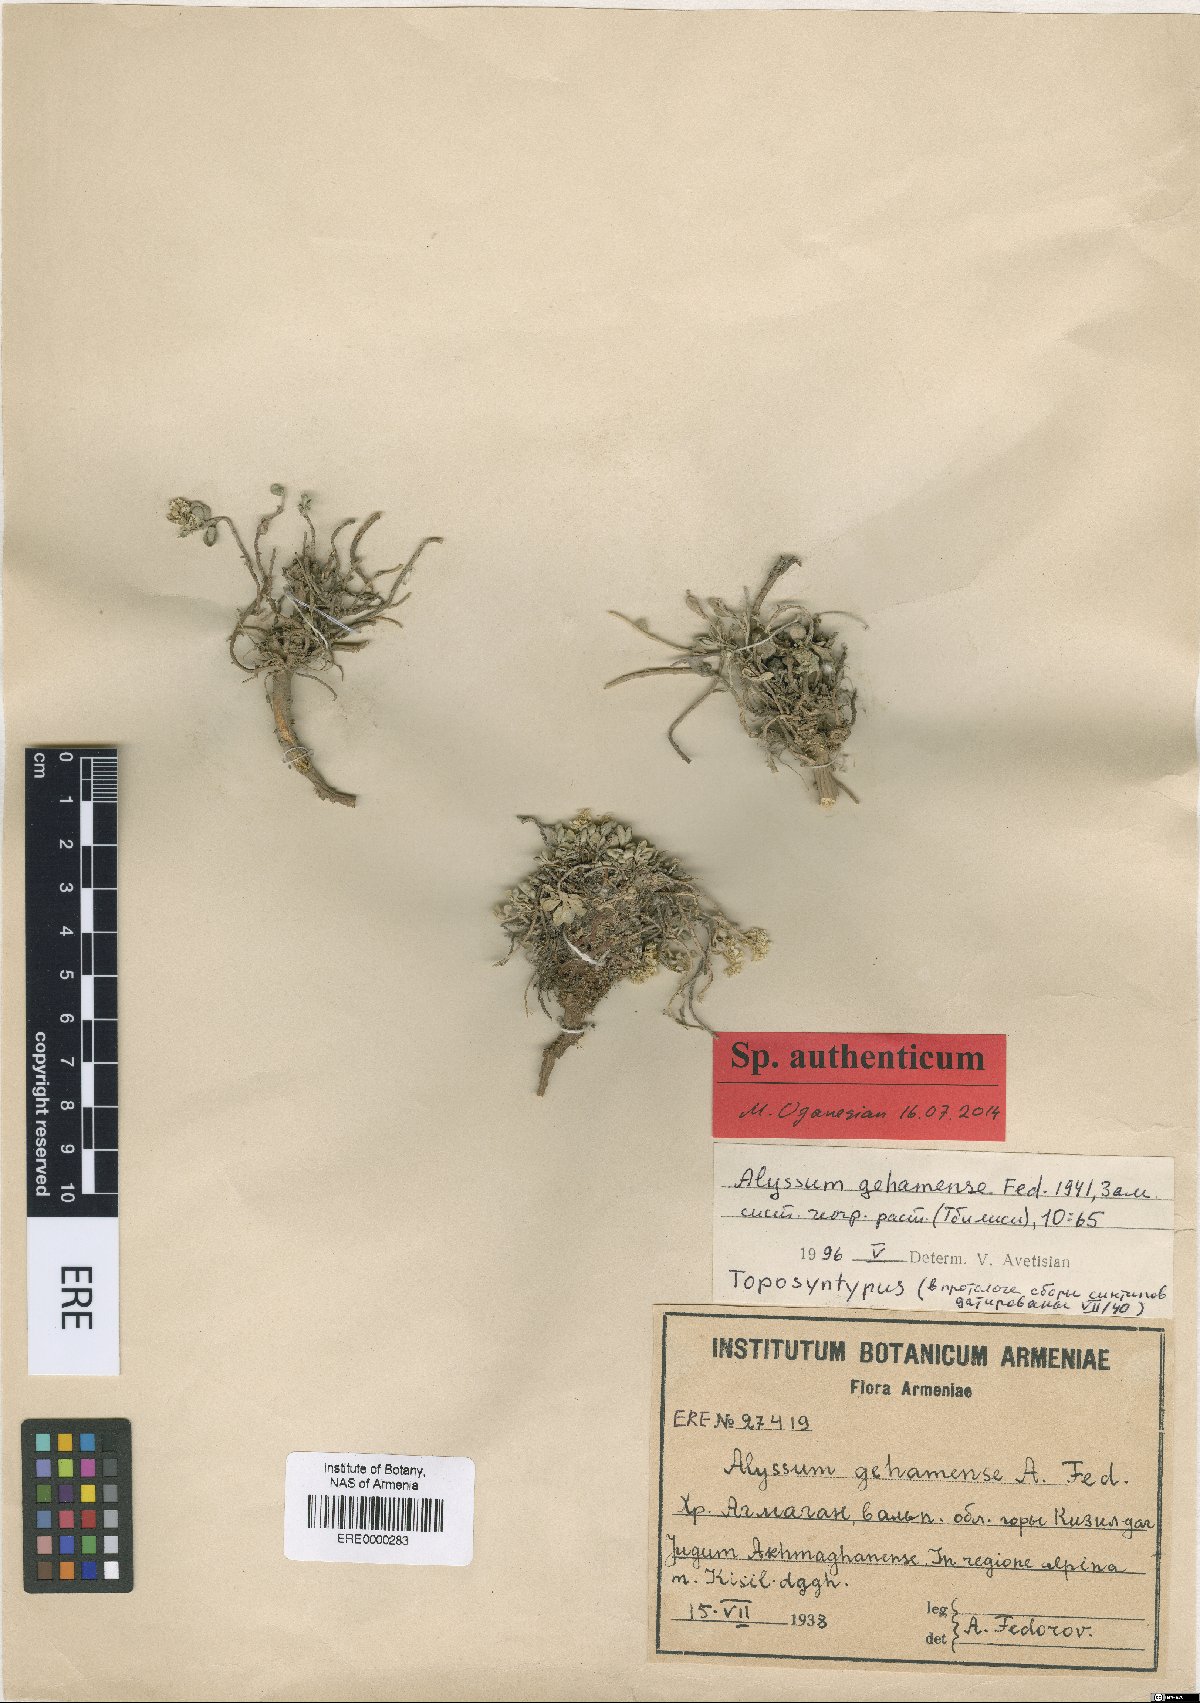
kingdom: Plantae
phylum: Tracheophyta
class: Magnoliopsida
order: Brassicales
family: Brassicaceae
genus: Odontarrhena
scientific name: Odontarrhena gehamensis
